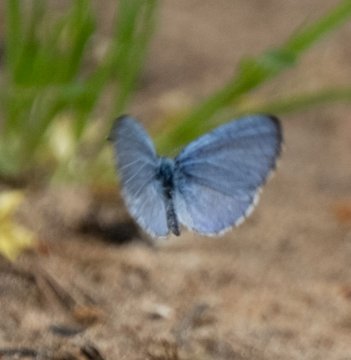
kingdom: Animalia
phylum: Arthropoda
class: Insecta
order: Lepidoptera
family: Lycaenidae
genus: Celastrina
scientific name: Celastrina ladon
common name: Spring Azure
